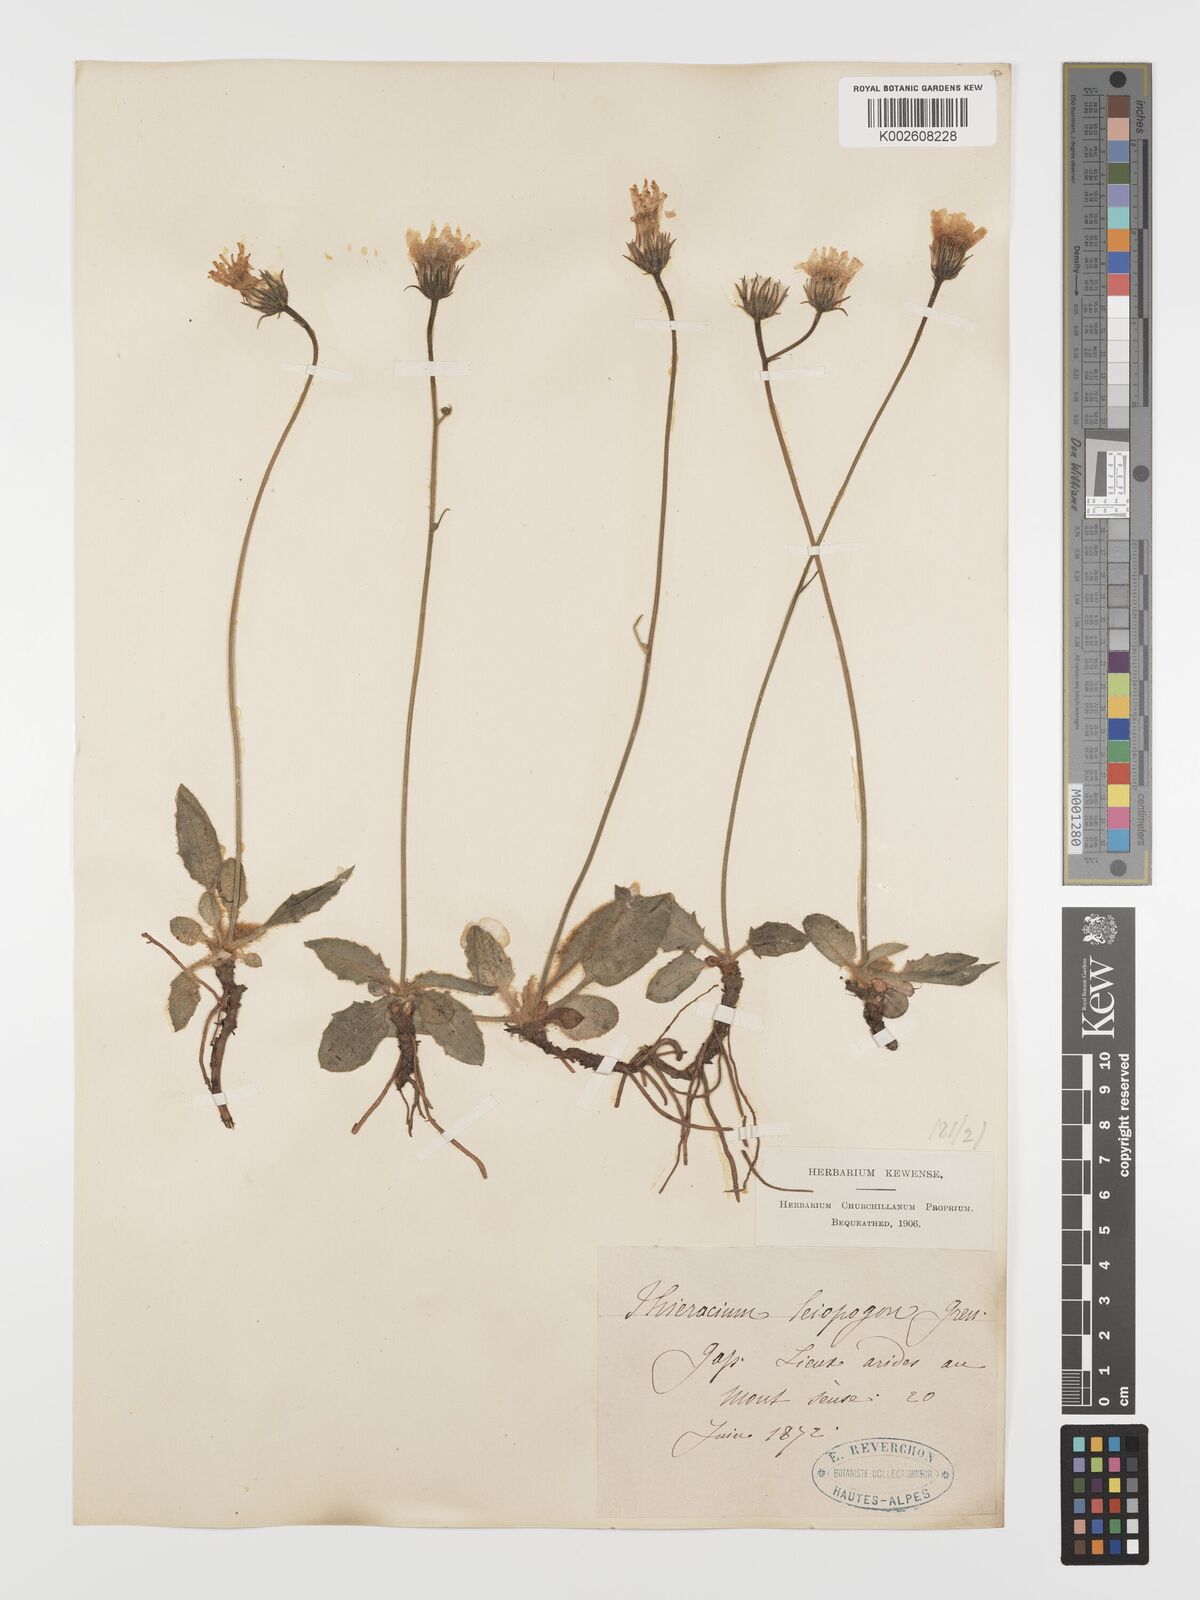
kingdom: Plantae
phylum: Tracheophyta
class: Magnoliopsida
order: Asterales
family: Asteraceae
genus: Hieracium
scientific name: Hieracium leiopogon
